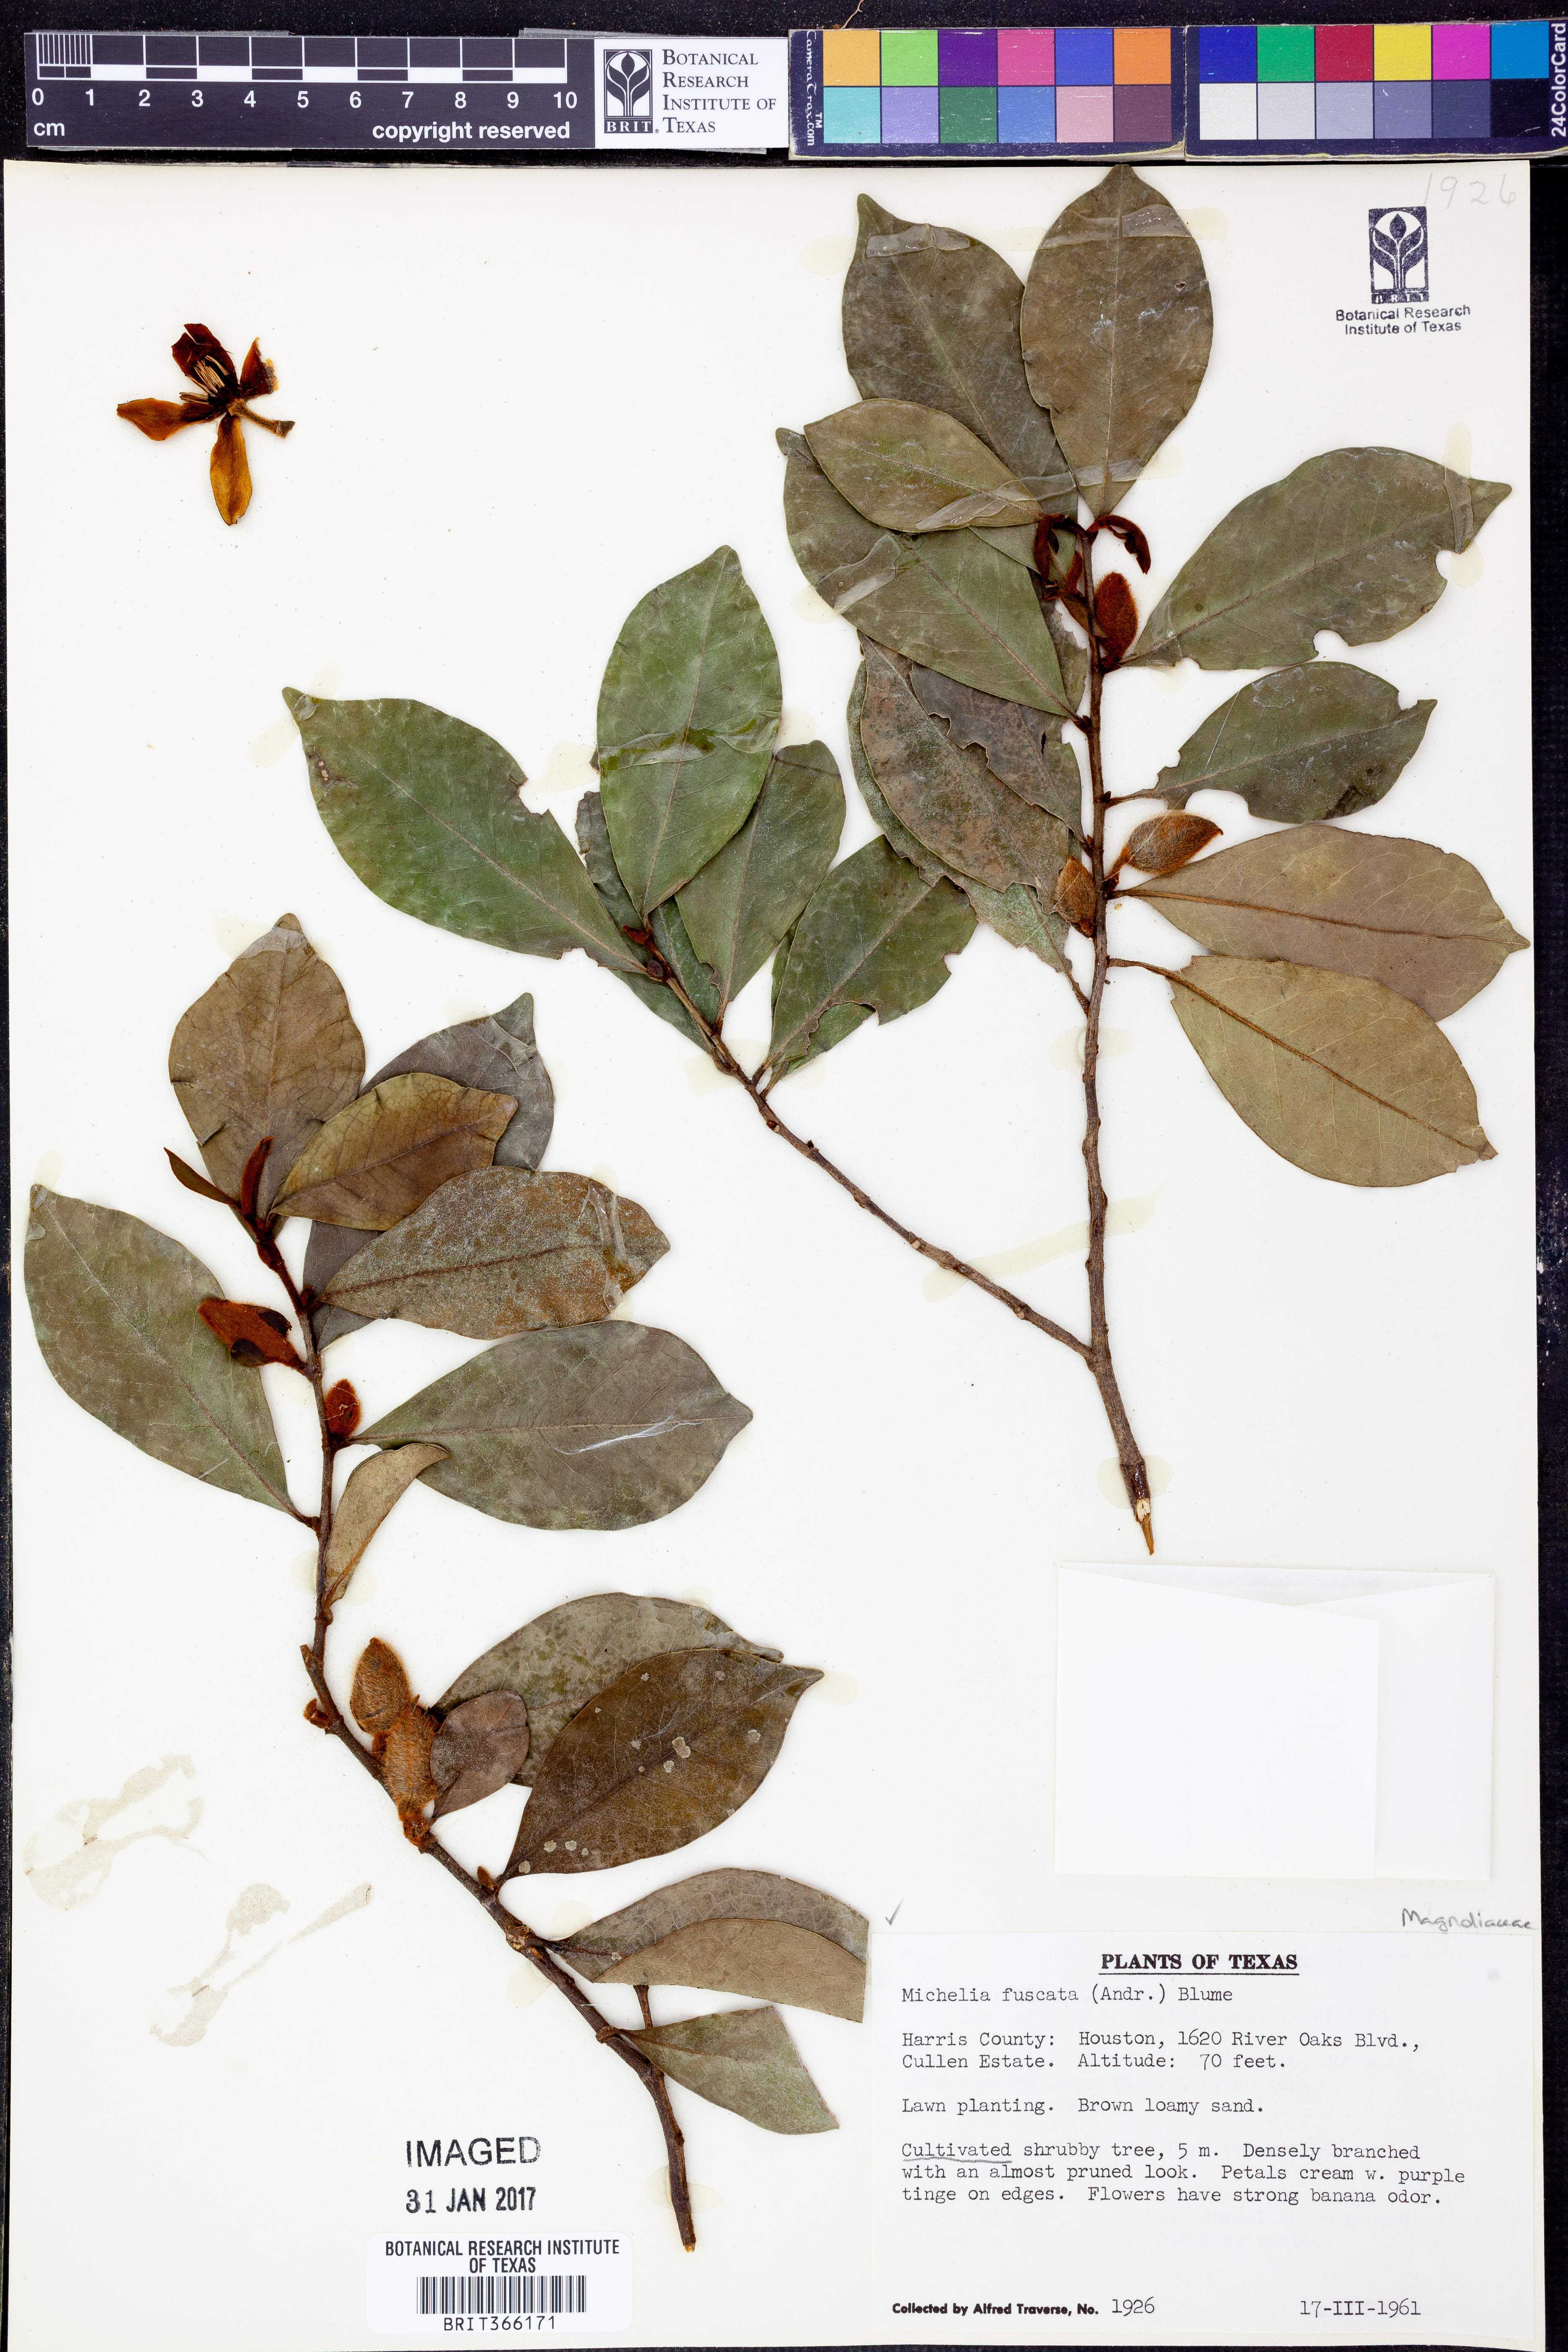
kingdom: Plantae
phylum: Tracheophyta
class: Magnoliopsida
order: Magnoliales
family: Magnoliaceae
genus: Magnolia
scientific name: Magnolia figo
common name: Banana shrub
